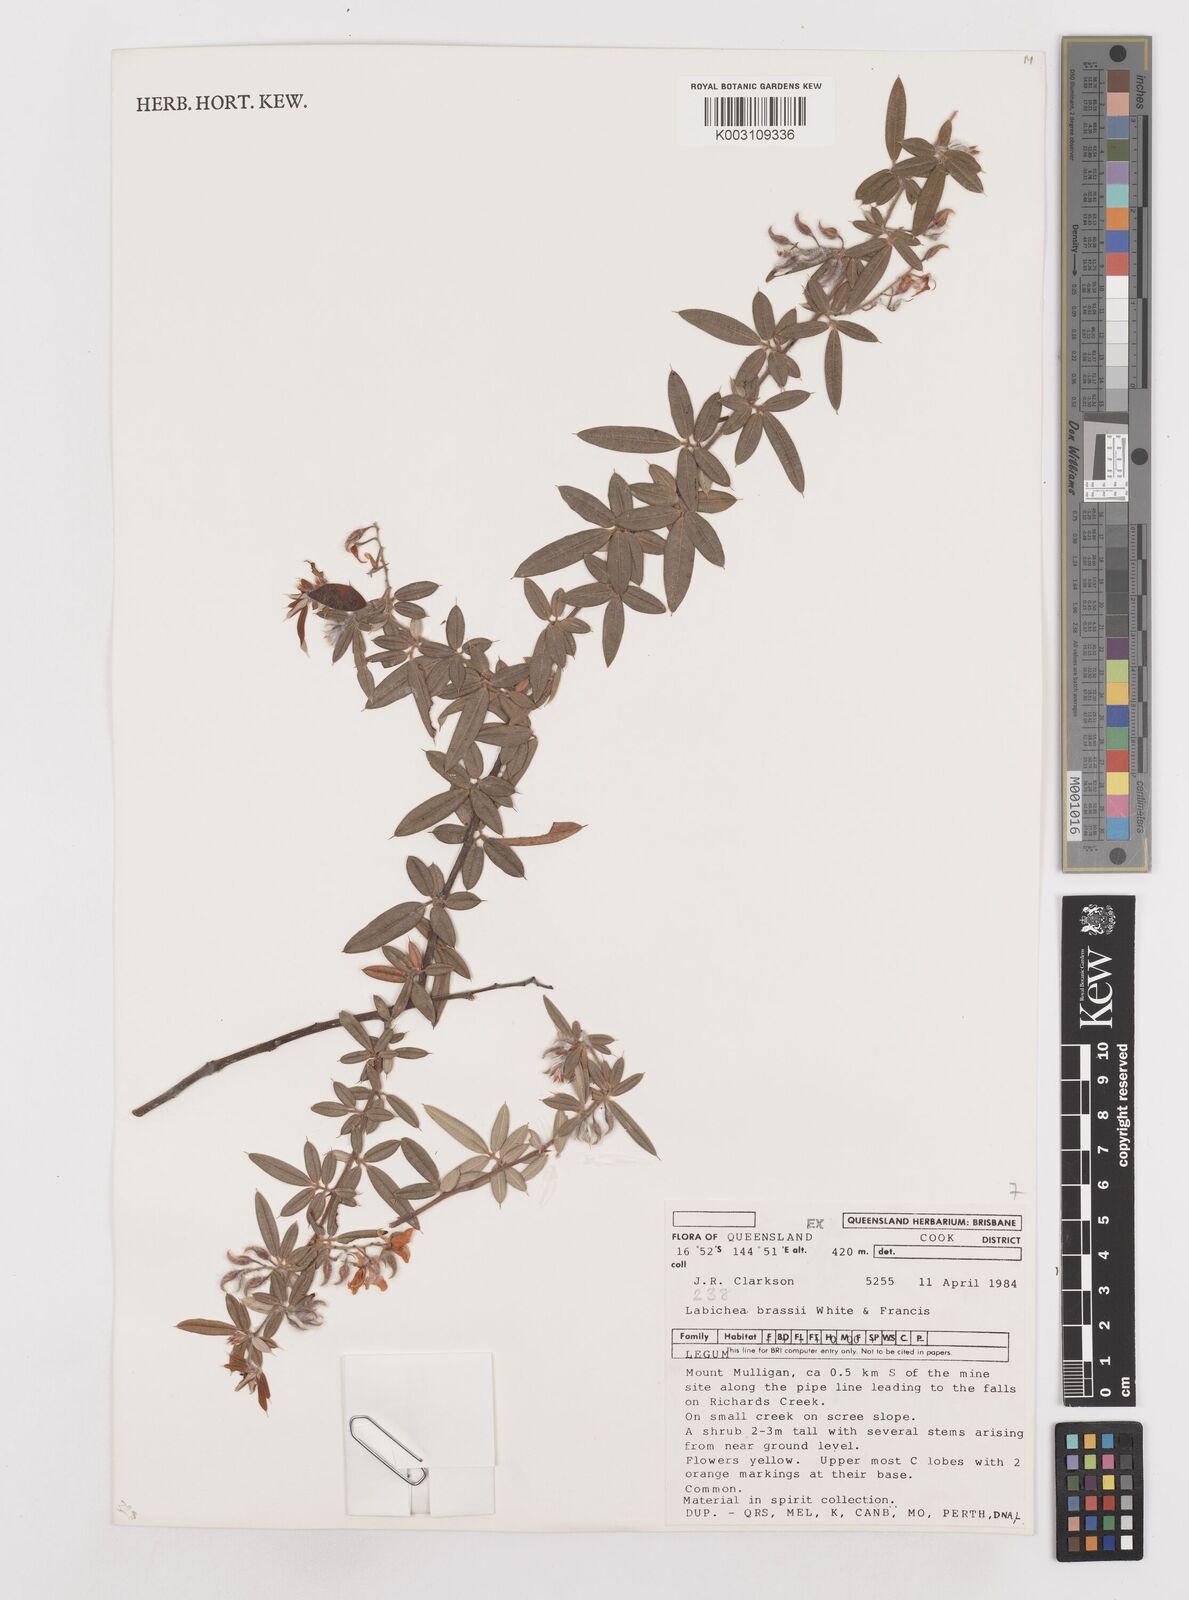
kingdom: Plantae
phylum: Tracheophyta
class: Magnoliopsida
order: Fabales
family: Fabaceae
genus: Labichea
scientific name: Labichea brassii
